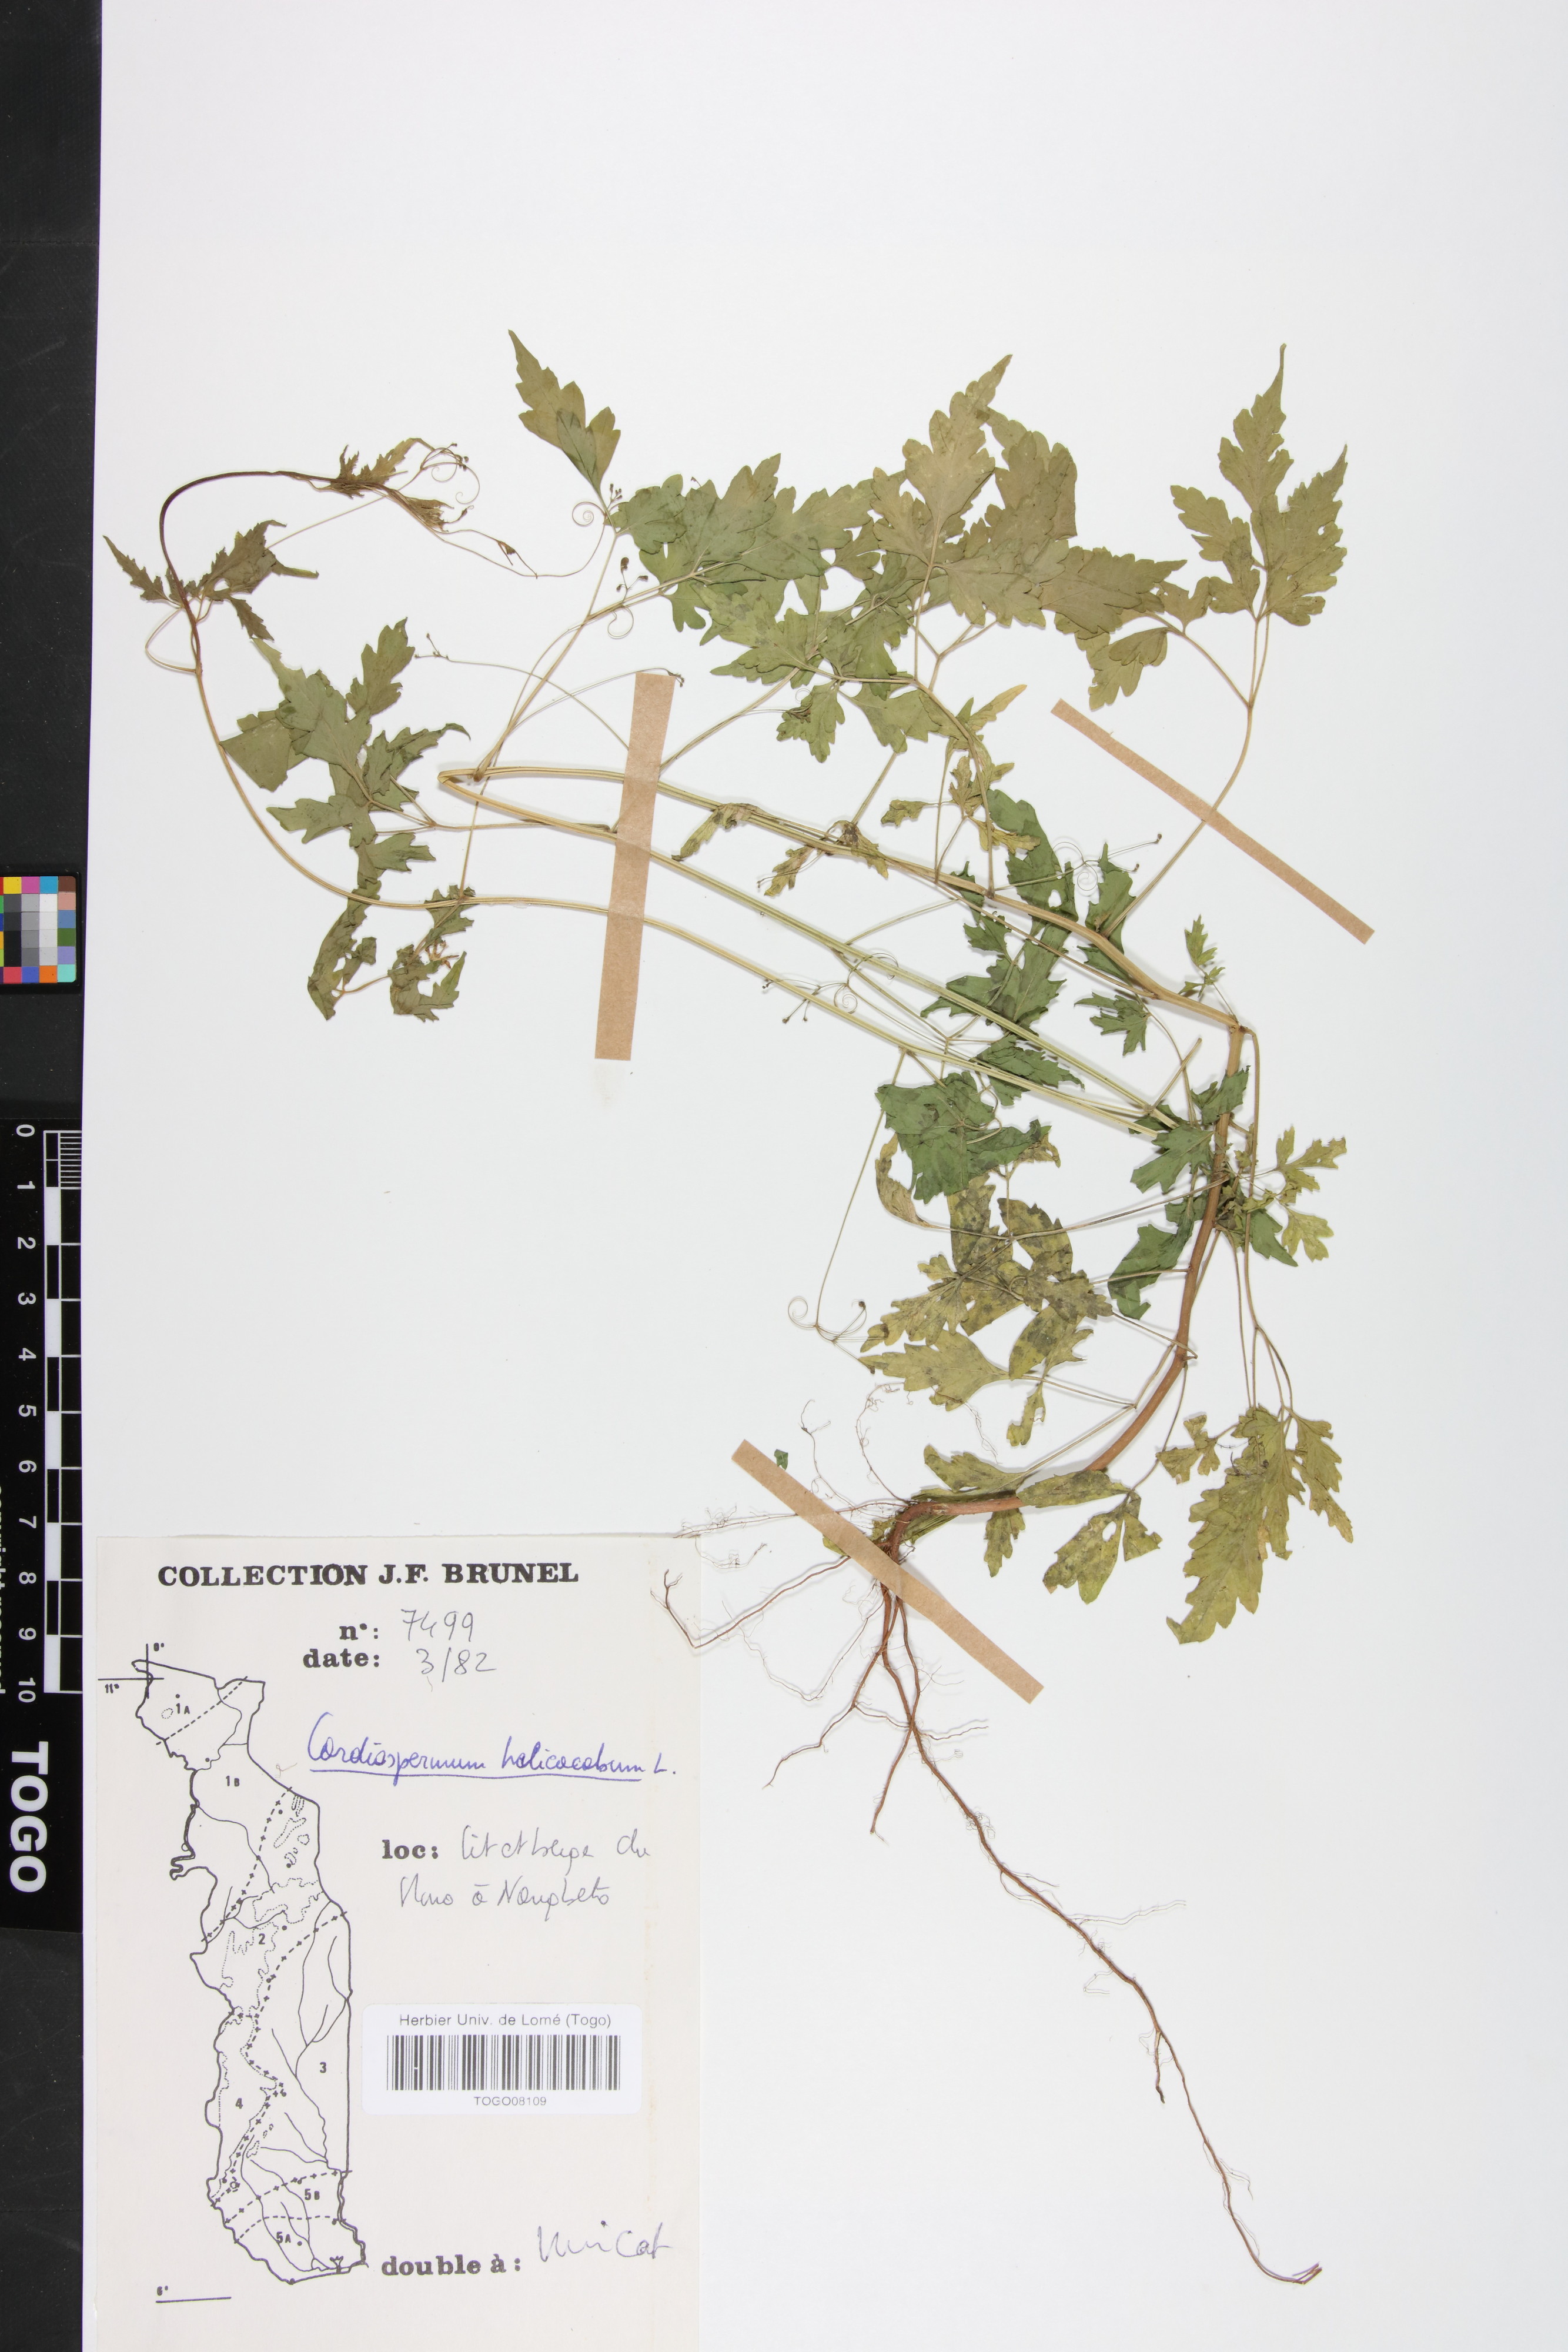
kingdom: Plantae
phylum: Tracheophyta
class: Magnoliopsida
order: Sapindales
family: Sapindaceae
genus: Cardiospermum
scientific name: Cardiospermum halicacabum
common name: Balloon vine
